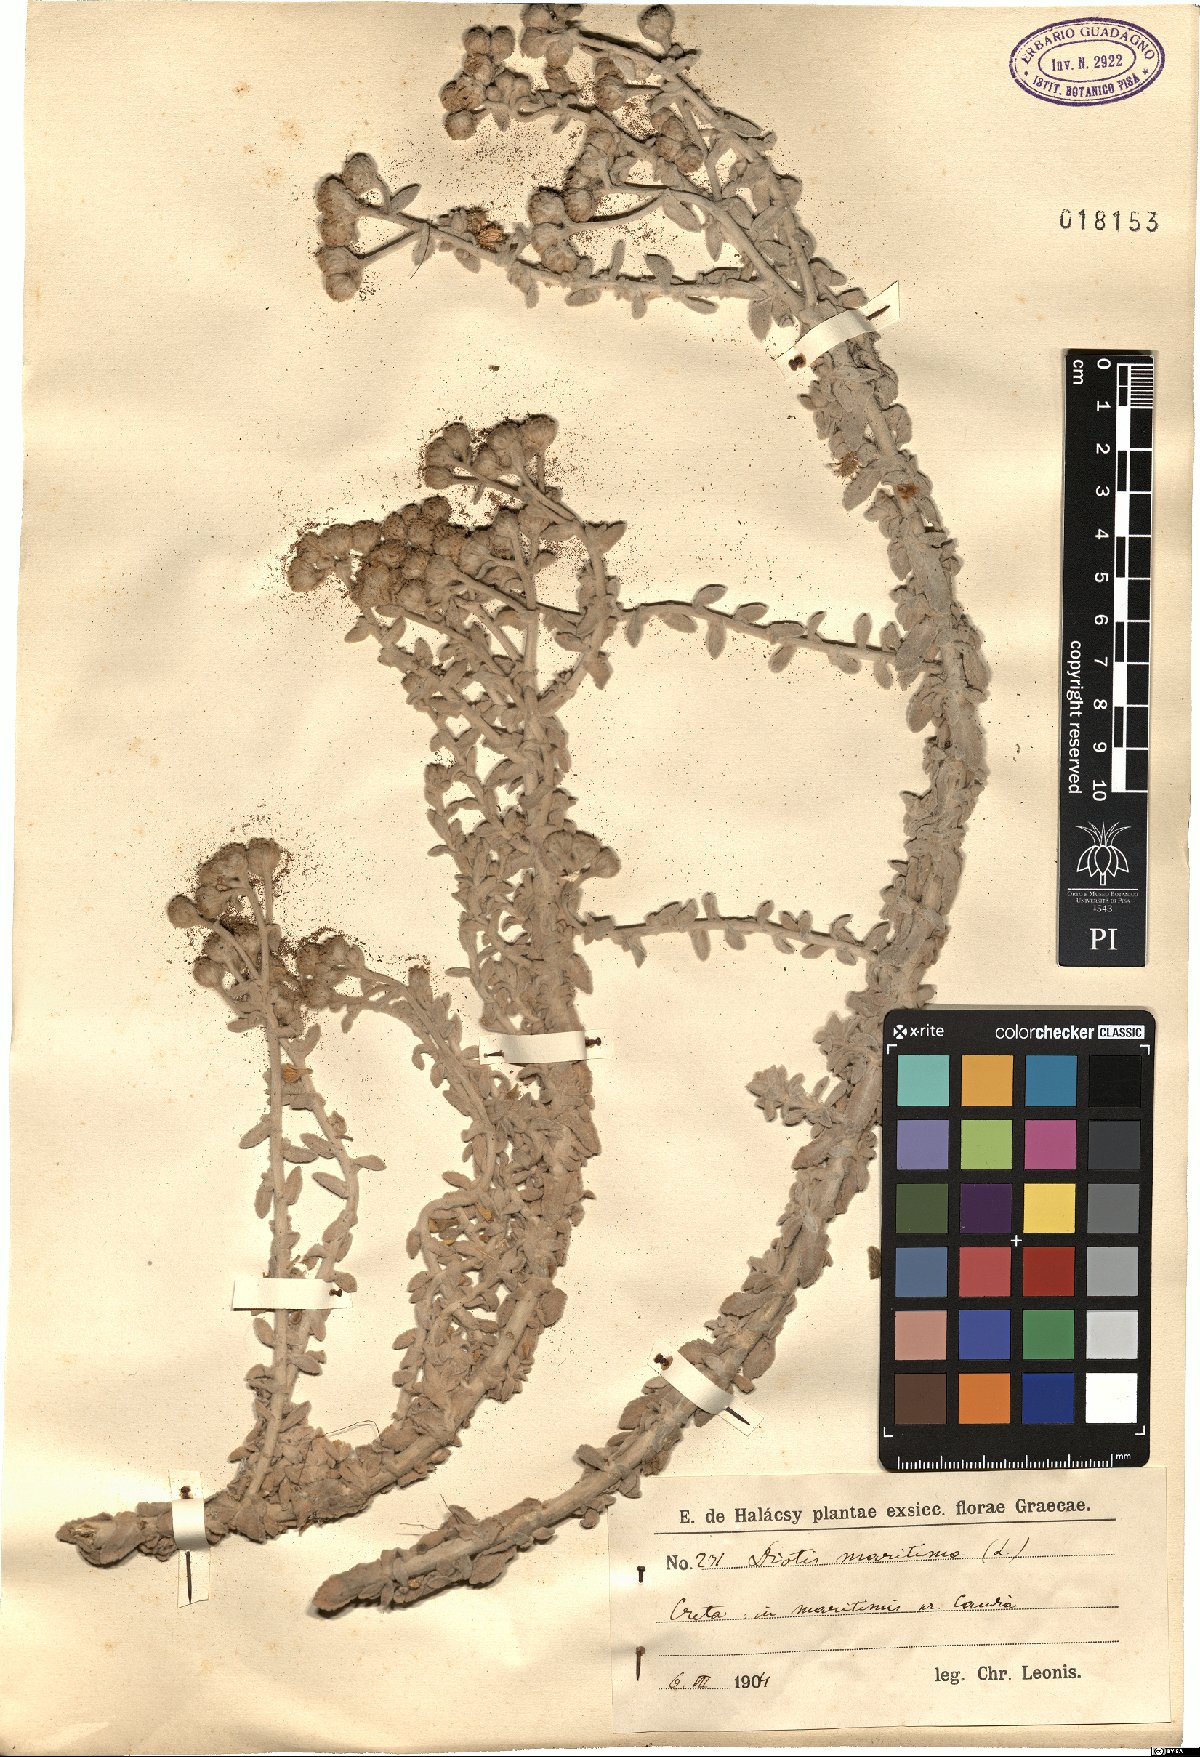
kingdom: Plantae
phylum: Tracheophyta
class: Magnoliopsida
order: Asterales
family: Asteraceae
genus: Achillea
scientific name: Achillea maritima
